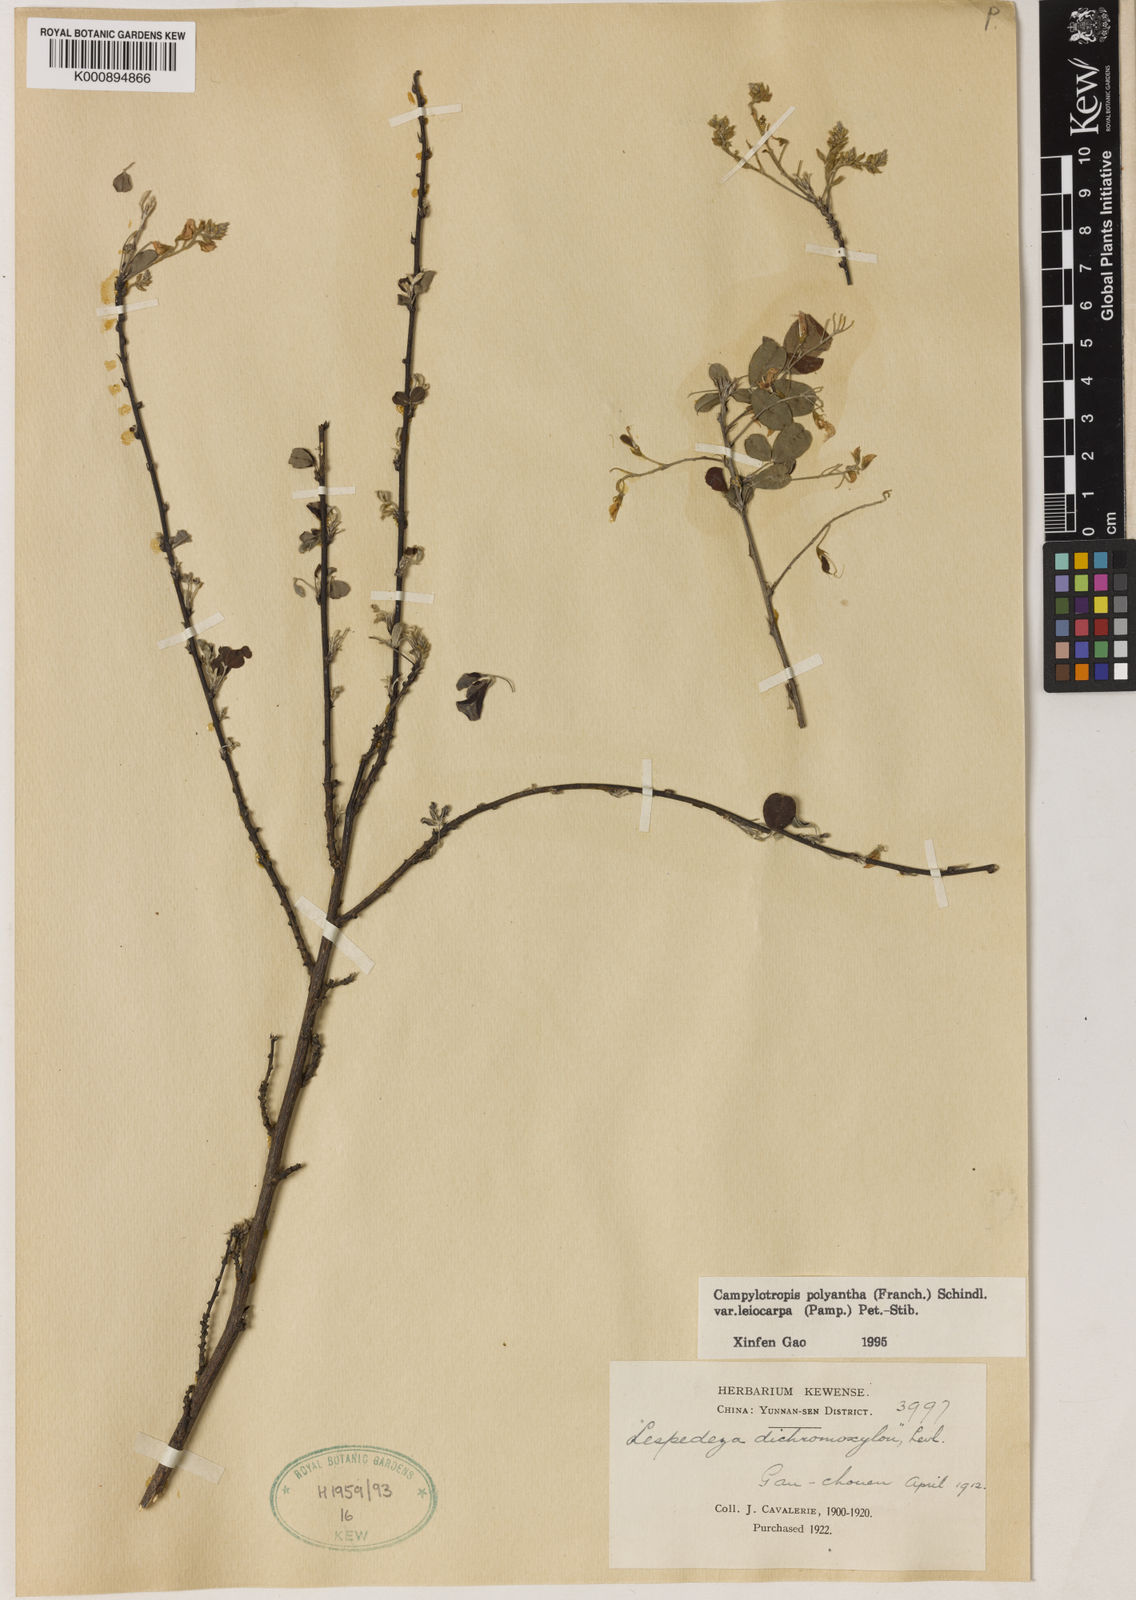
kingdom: Plantae
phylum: Tracheophyta
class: Magnoliopsida
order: Fabales
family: Fabaceae
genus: Campylotropis
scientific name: Campylotropis polyantha
